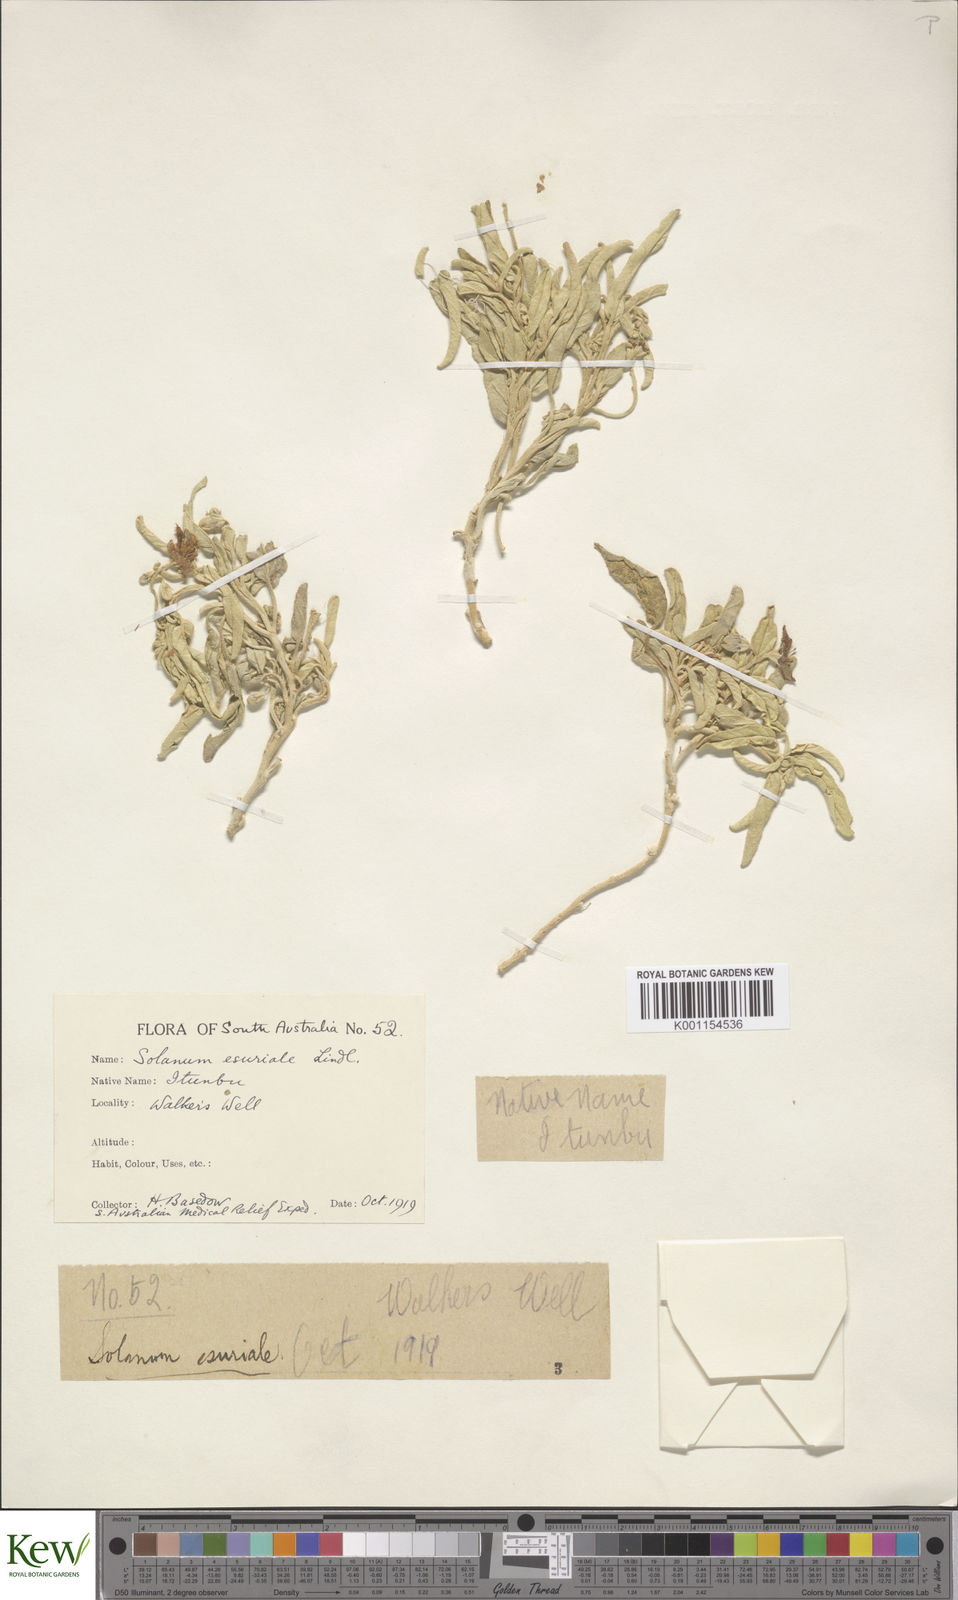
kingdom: Plantae
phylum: Tracheophyta
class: Magnoliopsida
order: Solanales
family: Solanaceae
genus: Solanum
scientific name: Solanum esuriale
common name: Wild tomato
